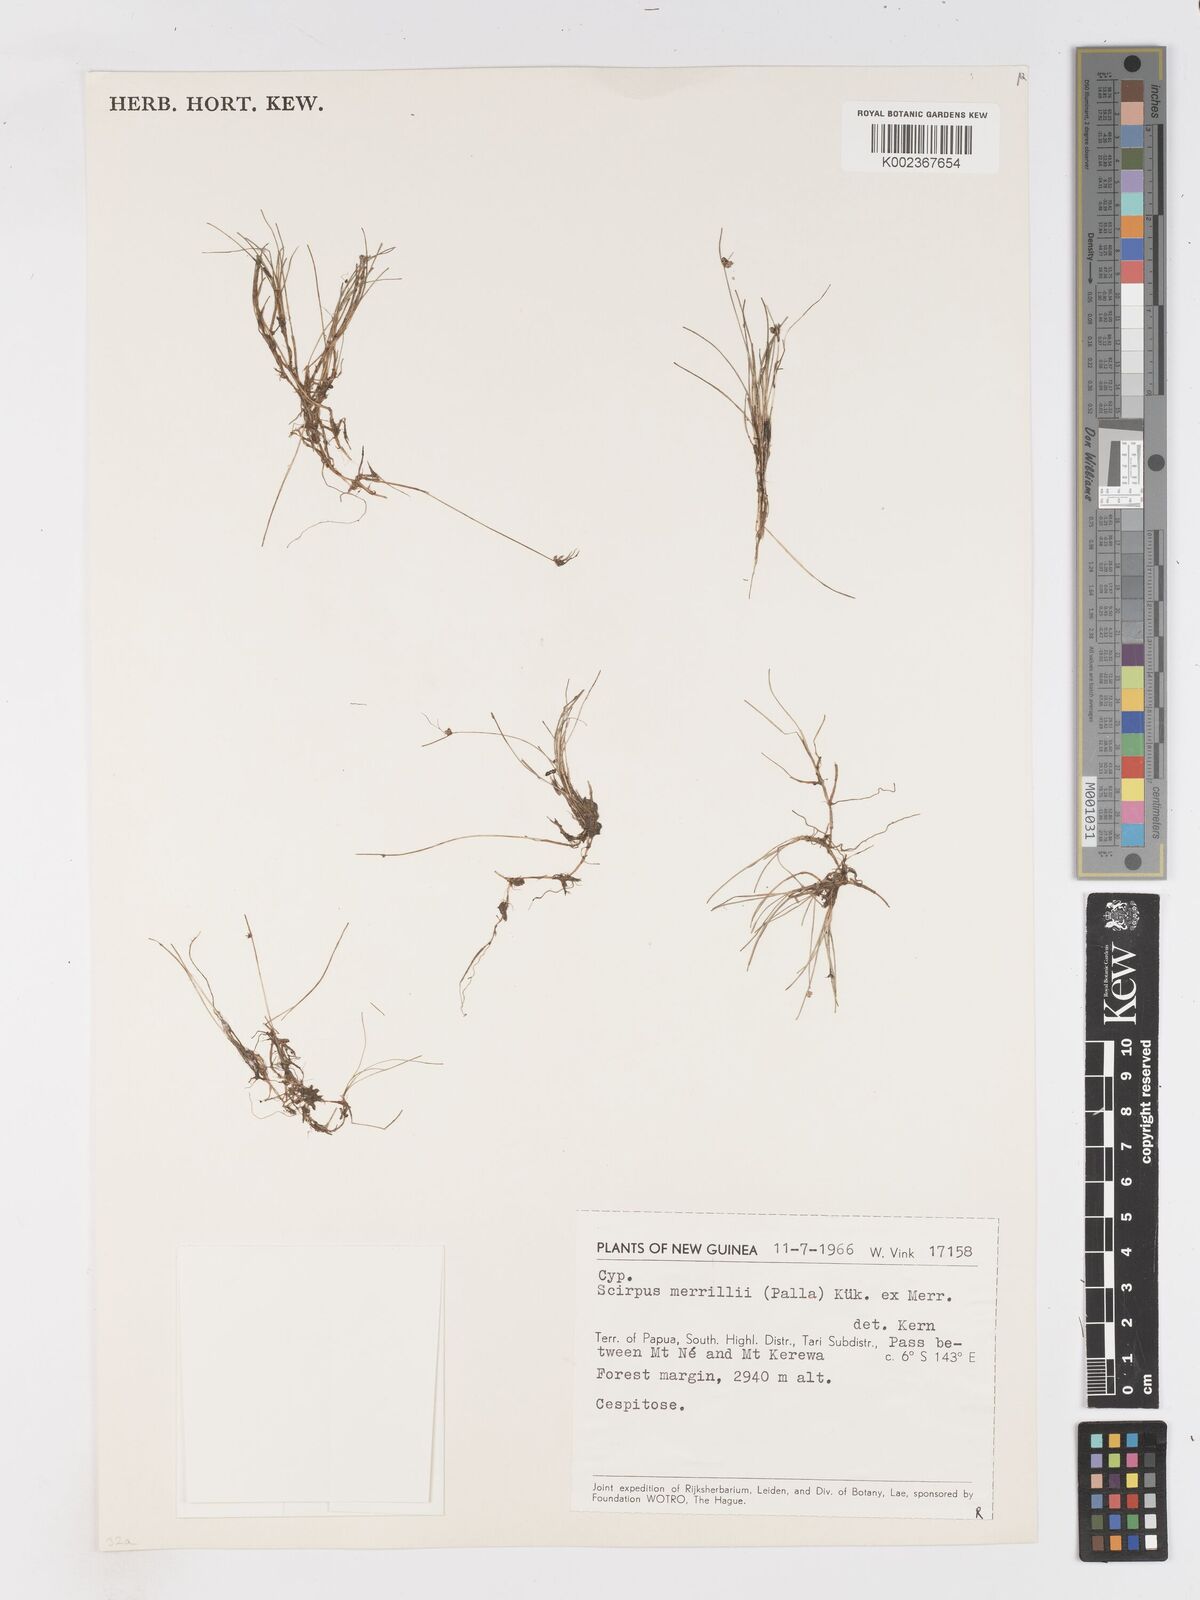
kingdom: Plantae
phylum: Tracheophyta
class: Liliopsida
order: Poales
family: Cyperaceae
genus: Isolepis
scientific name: Isolepis subtilissima
